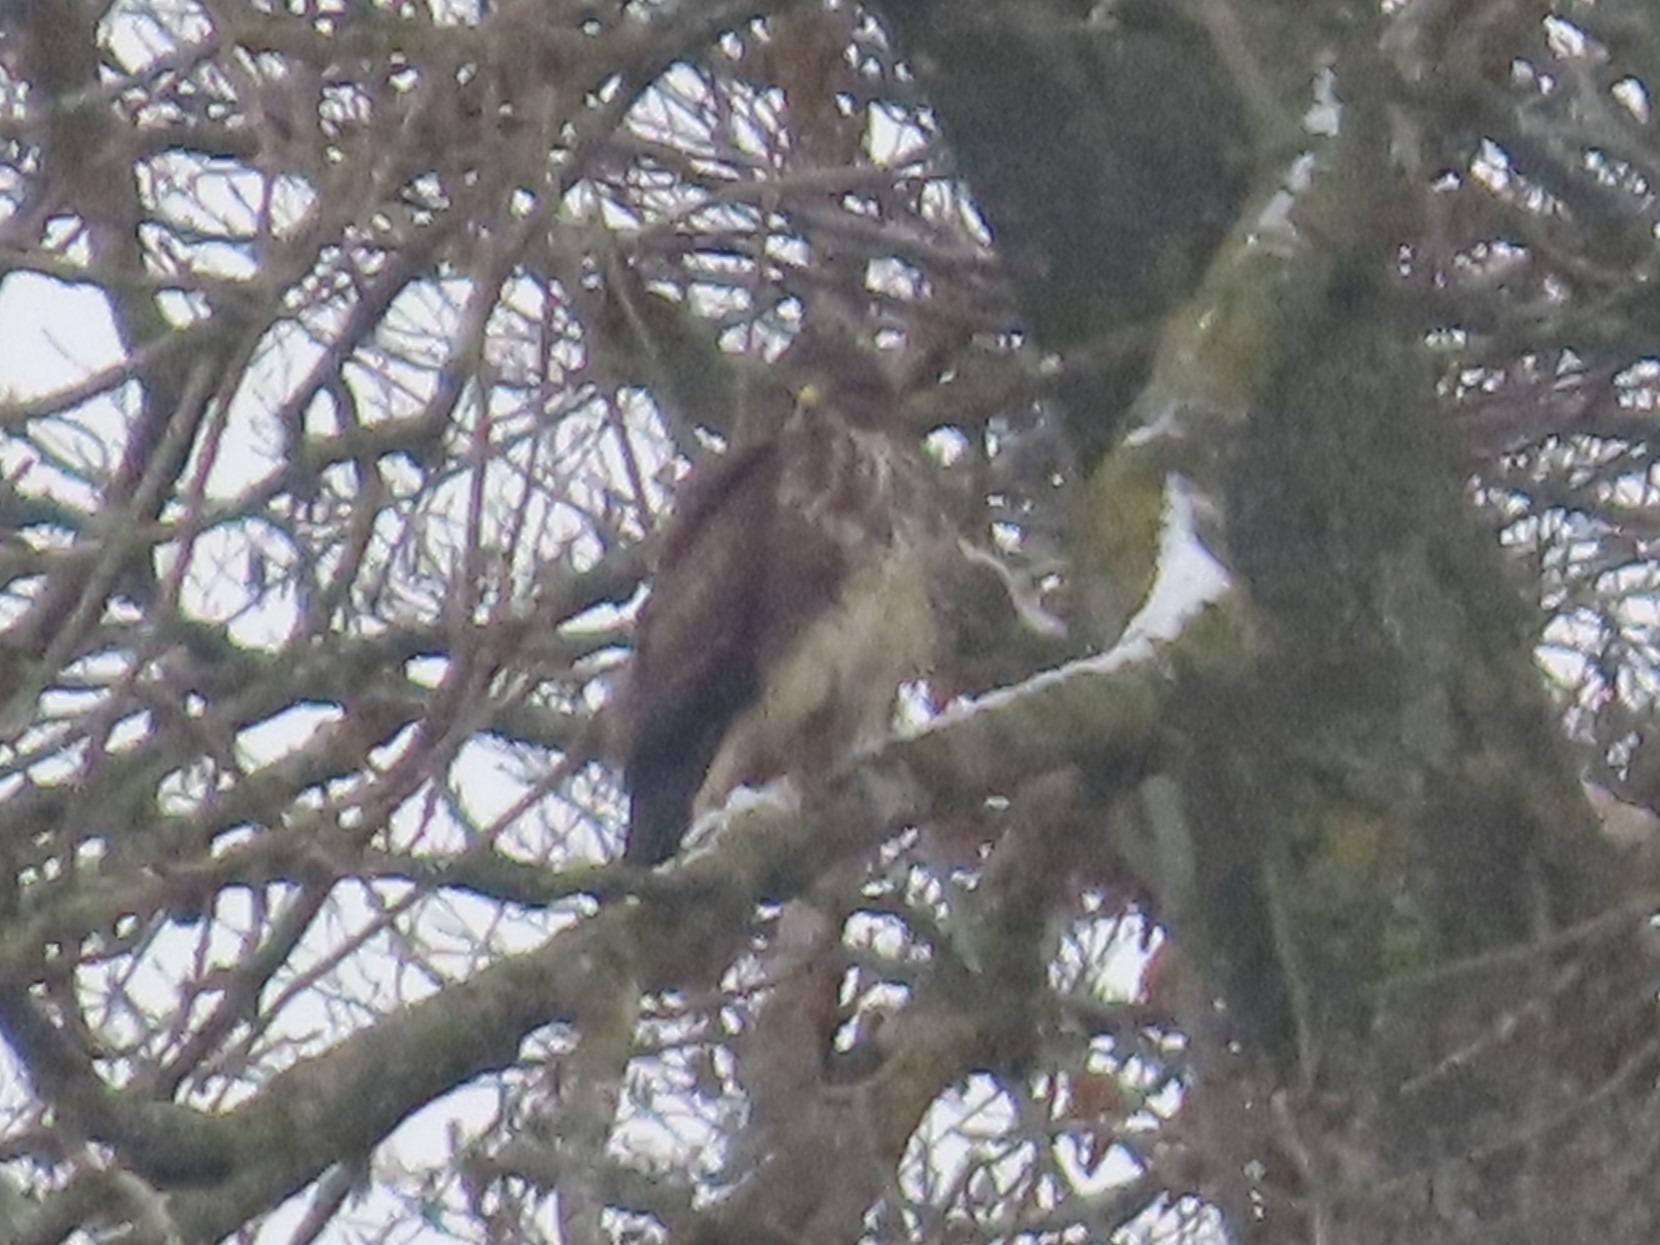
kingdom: Animalia
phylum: Chordata
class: Aves
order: Accipitriformes
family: Accipitridae
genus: Buteo
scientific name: Buteo buteo
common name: Musvåge
